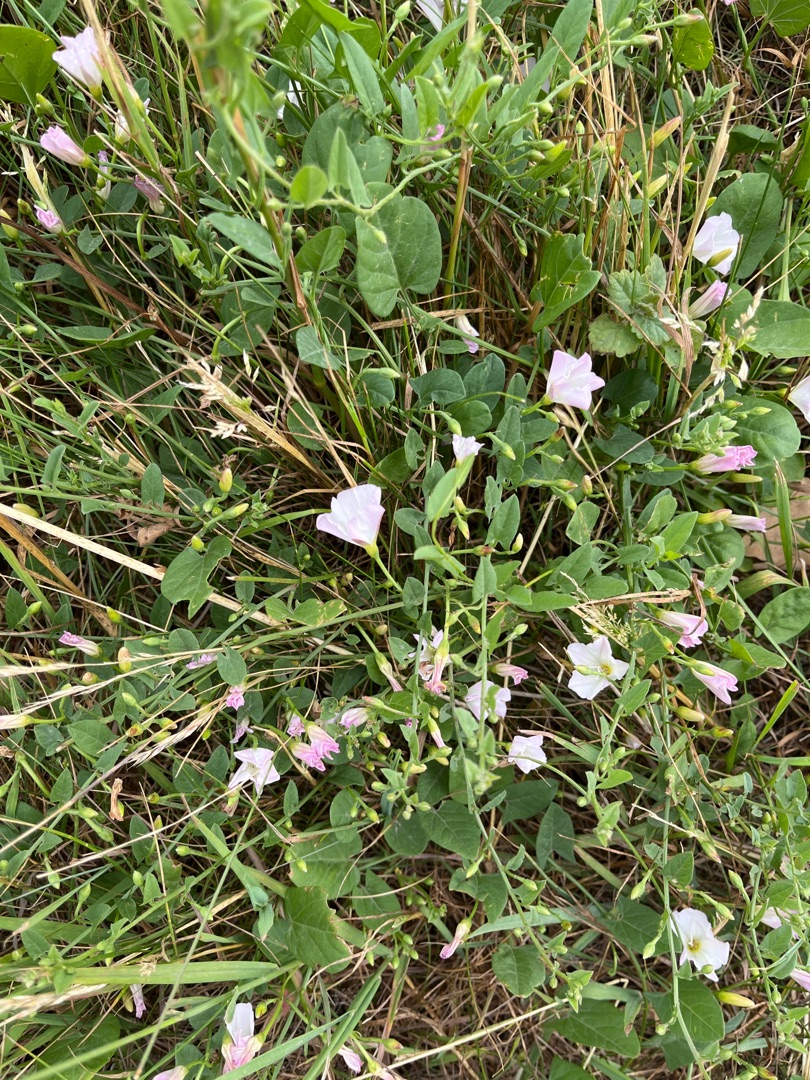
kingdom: Plantae
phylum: Tracheophyta
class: Magnoliopsida
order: Solanales
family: Convolvulaceae
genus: Convolvulus
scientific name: Convolvulus arvensis
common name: Ager-snerle
